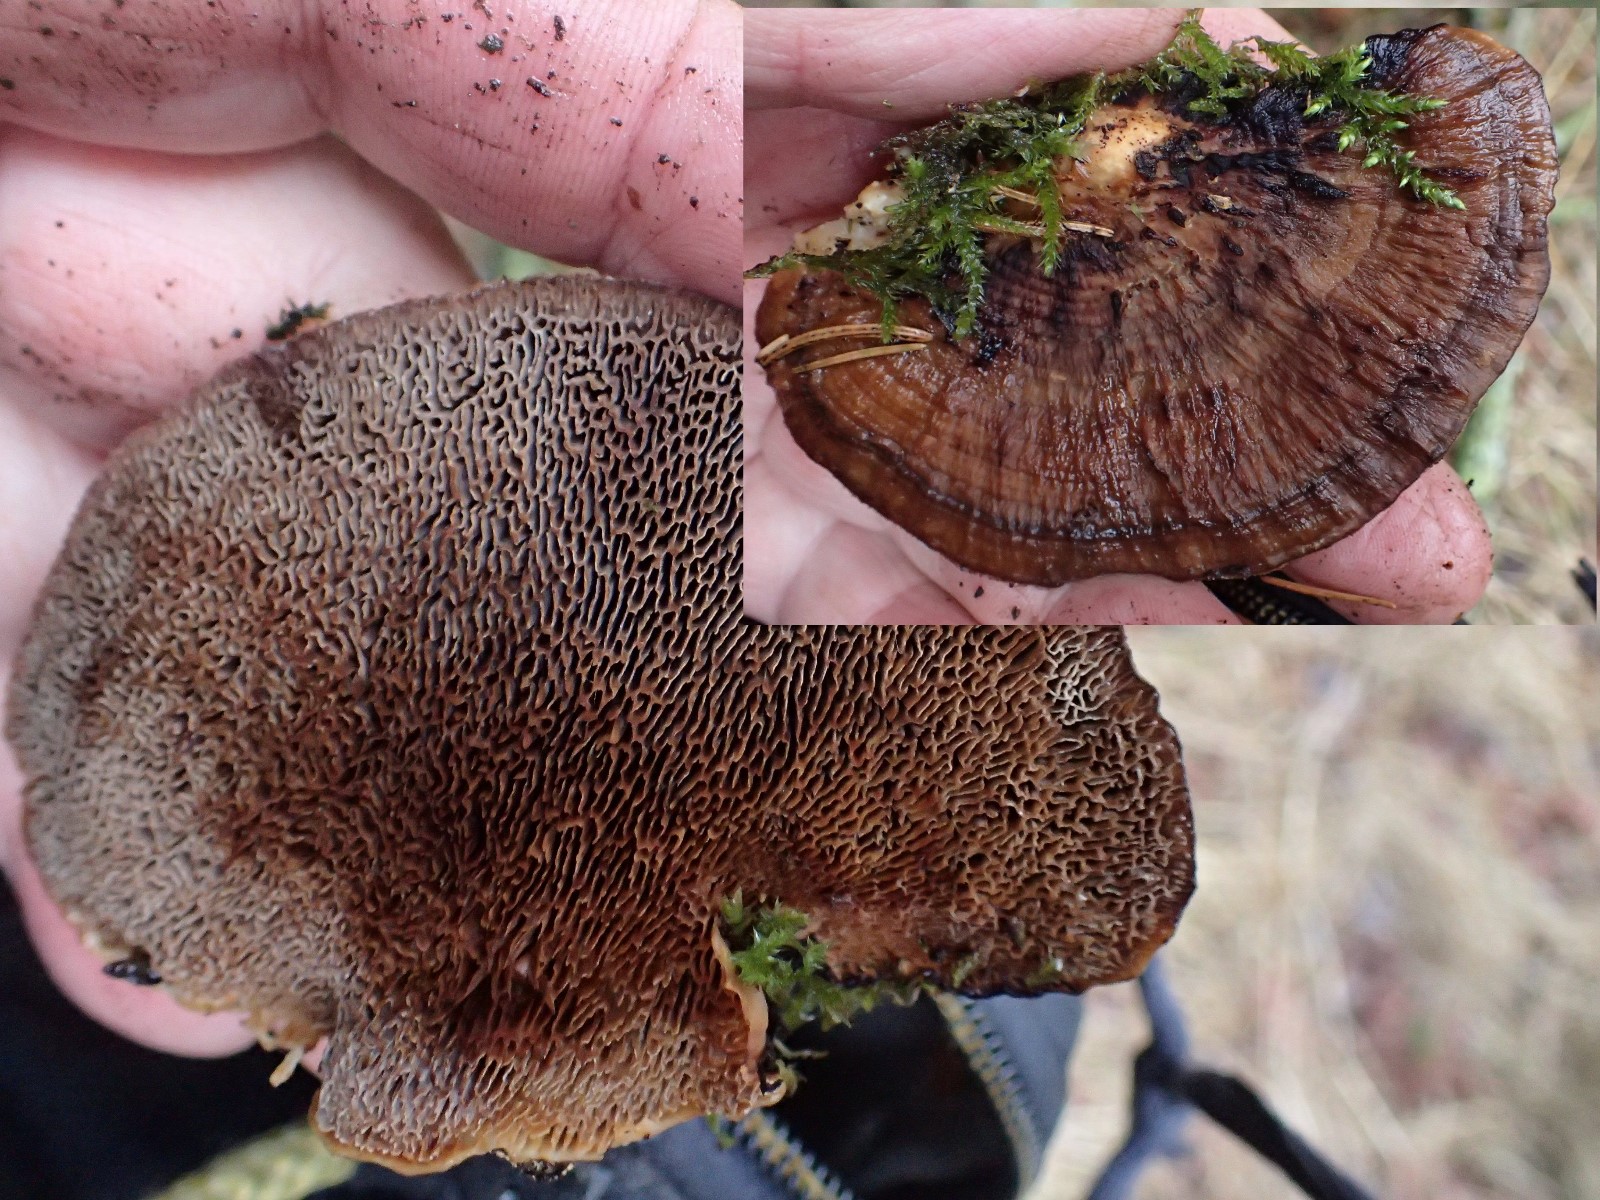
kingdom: Fungi
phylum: Basidiomycota
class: Agaricomycetes
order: Polyporales
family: Polyporaceae
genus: Daedaleopsis
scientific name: Daedaleopsis confragosa
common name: rødmende læderporesvamp
